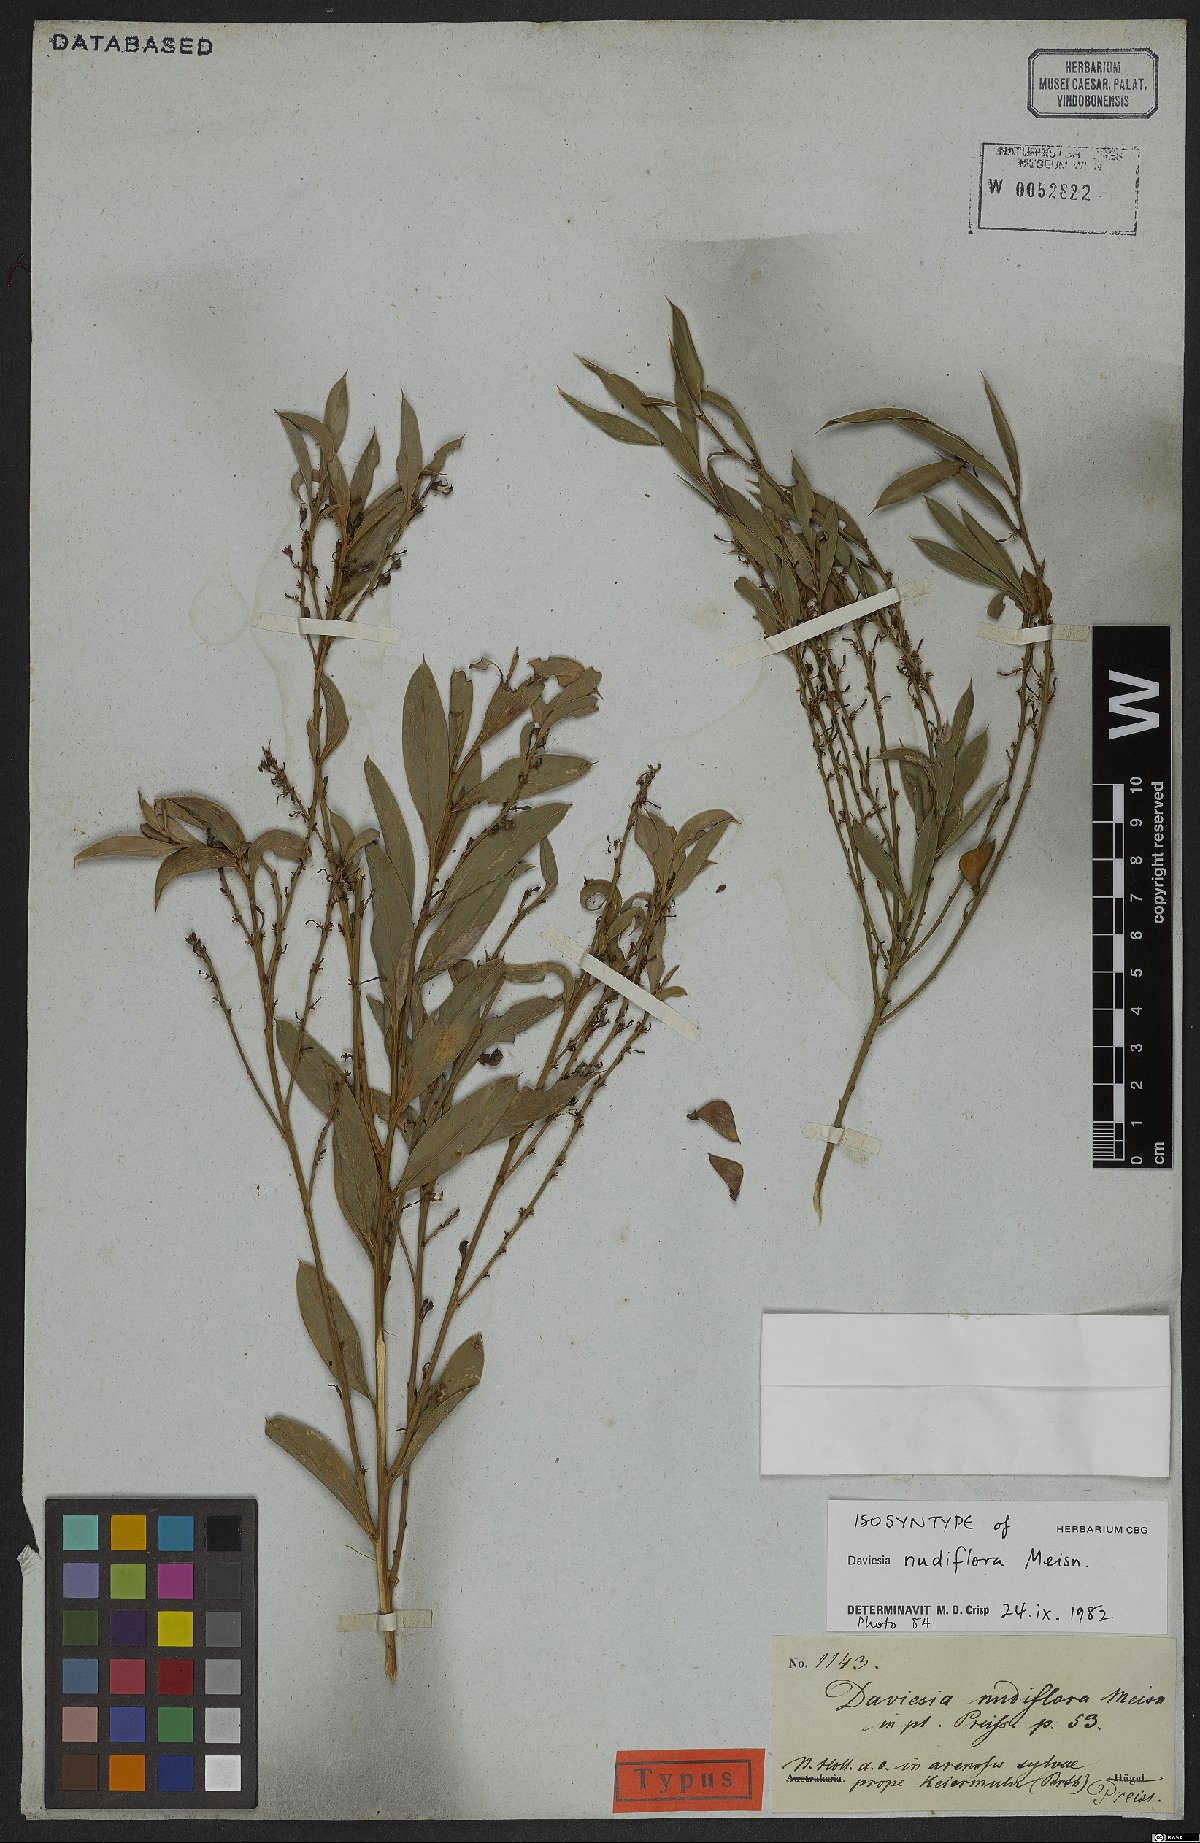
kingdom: Plantae
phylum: Tracheophyta
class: Magnoliopsida
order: Fabales
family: Fabaceae
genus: Daviesia
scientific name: Daviesia nudiflora
